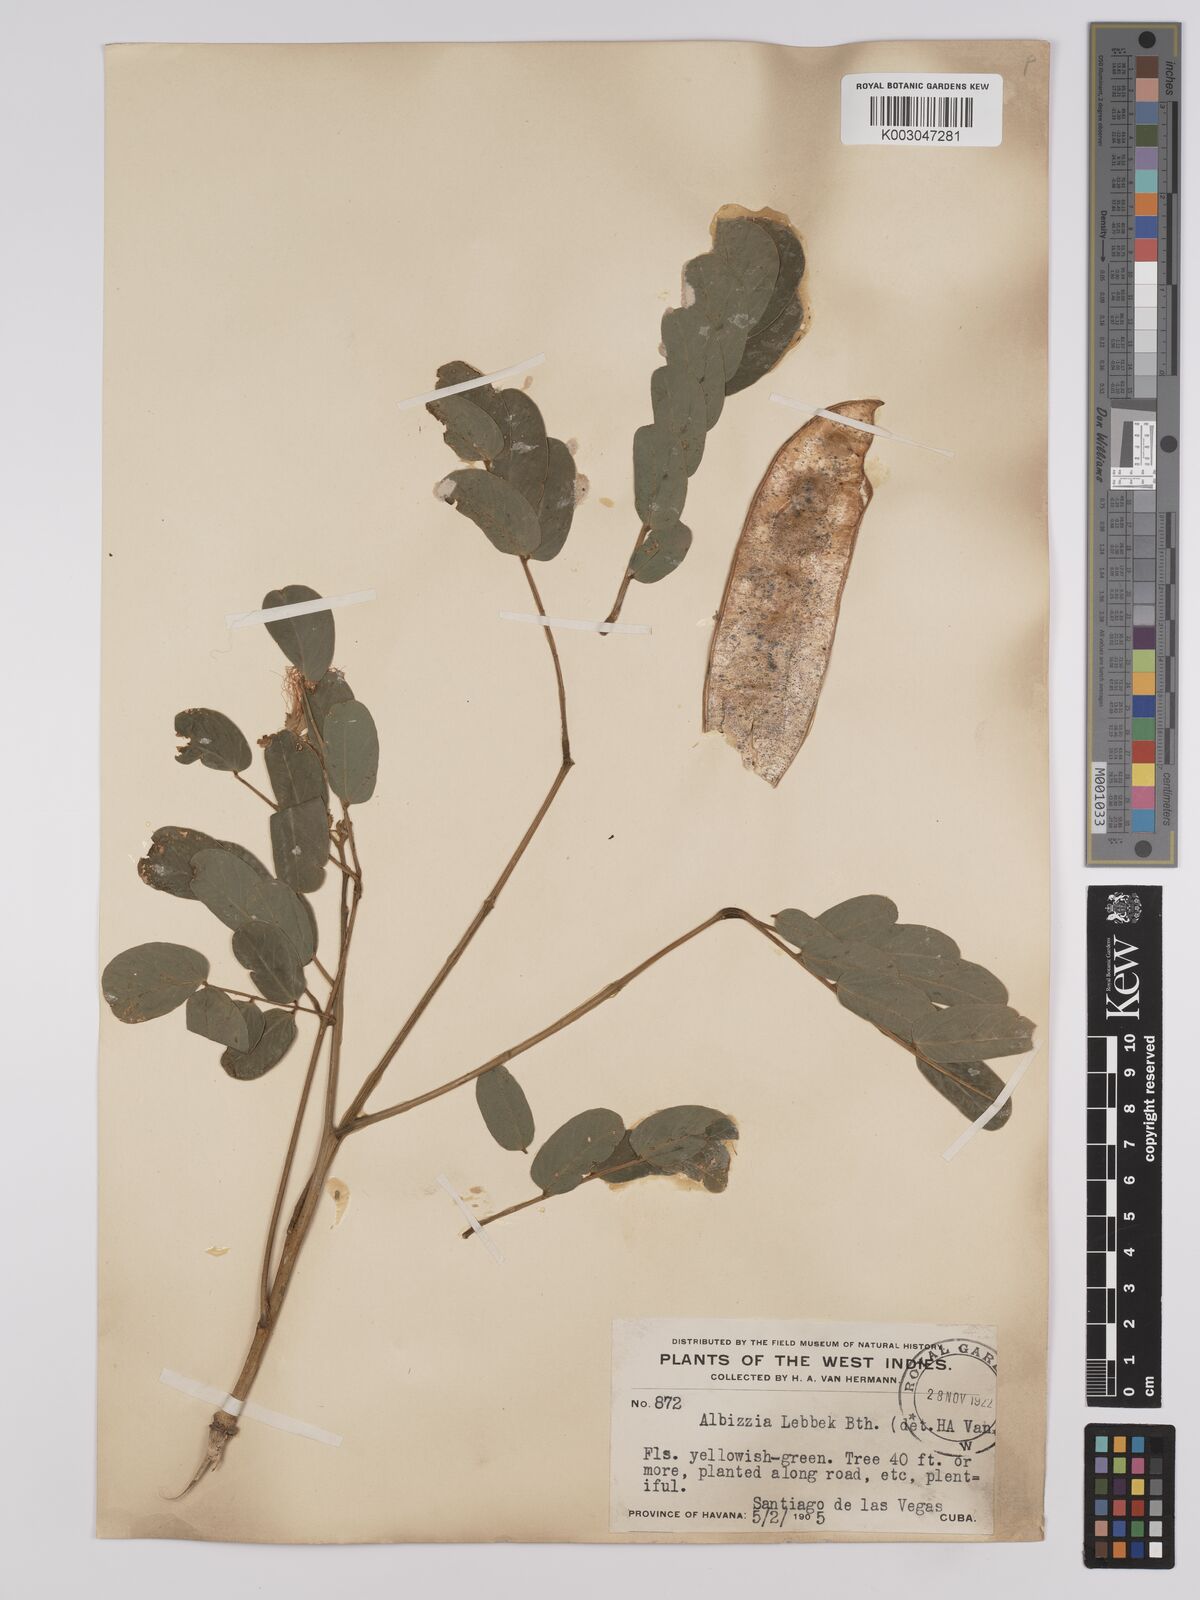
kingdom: Plantae
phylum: Tracheophyta
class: Magnoliopsida
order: Fabales
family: Fabaceae
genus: Albizia
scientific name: Albizia lebbeck
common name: Woman's tongue
